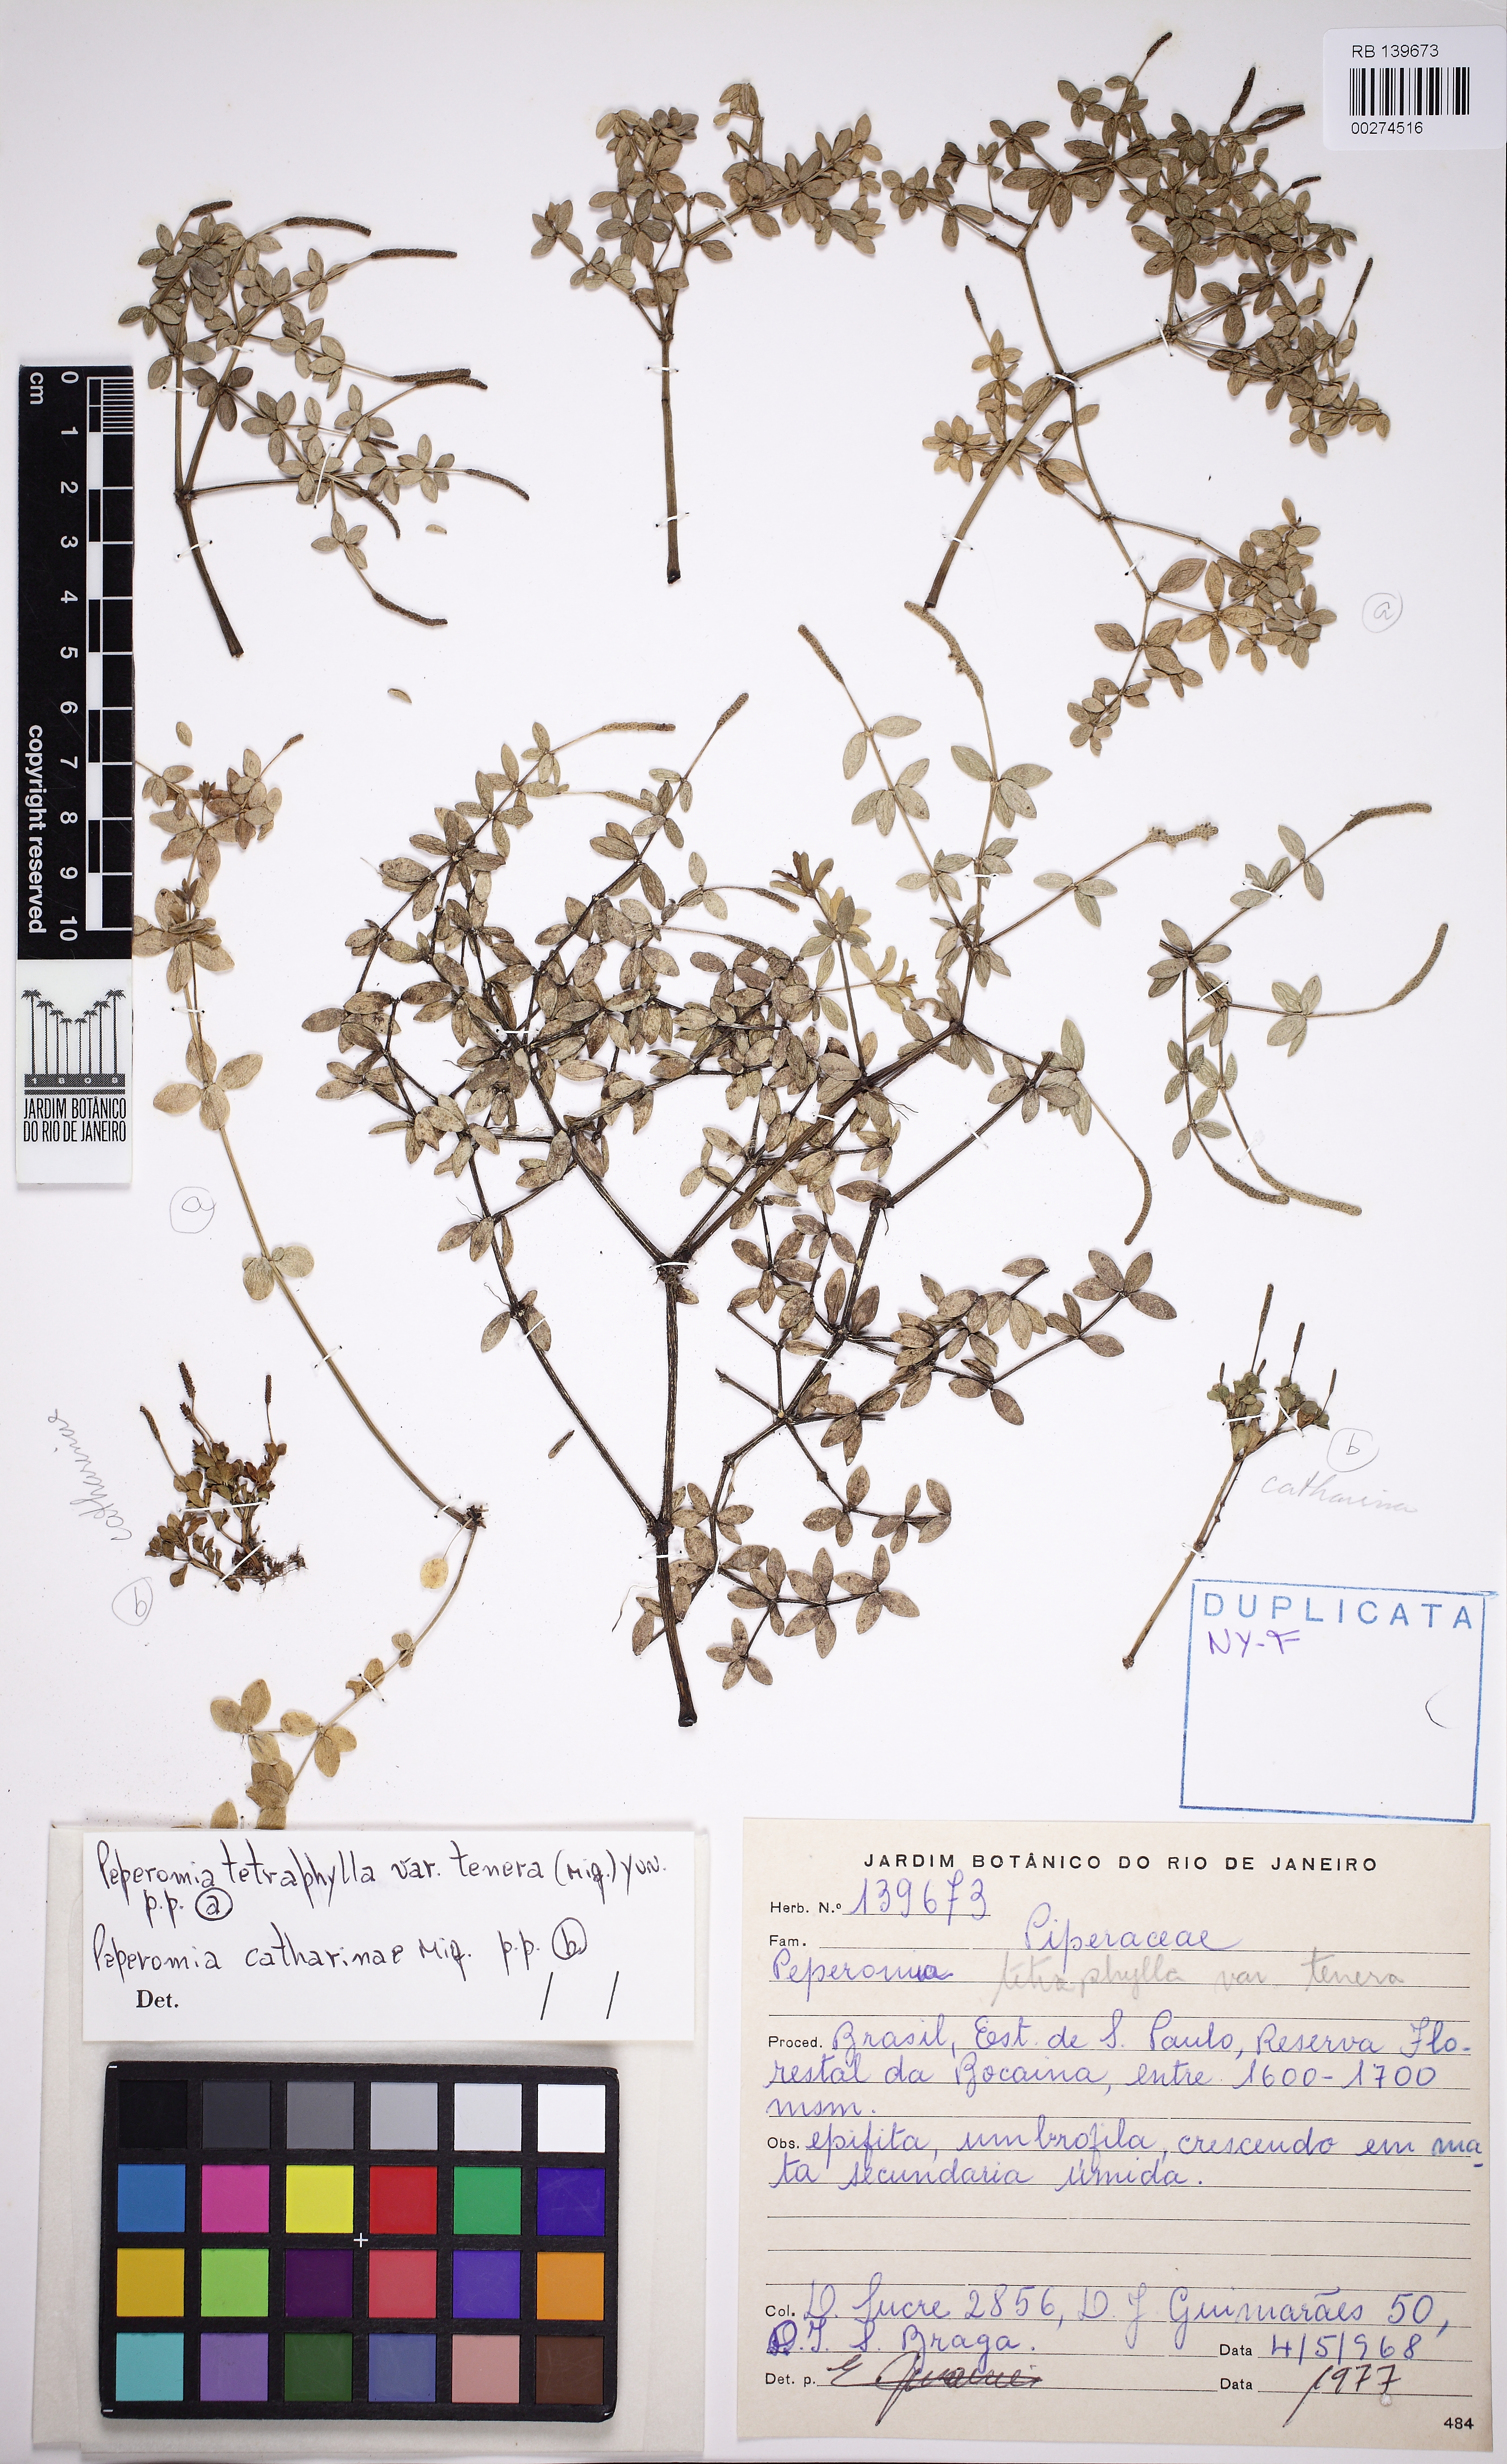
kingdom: Plantae
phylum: Tracheophyta
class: Magnoliopsida
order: Piperales
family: Piperaceae
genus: Peperomia
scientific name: Peperomia tetraphylla
